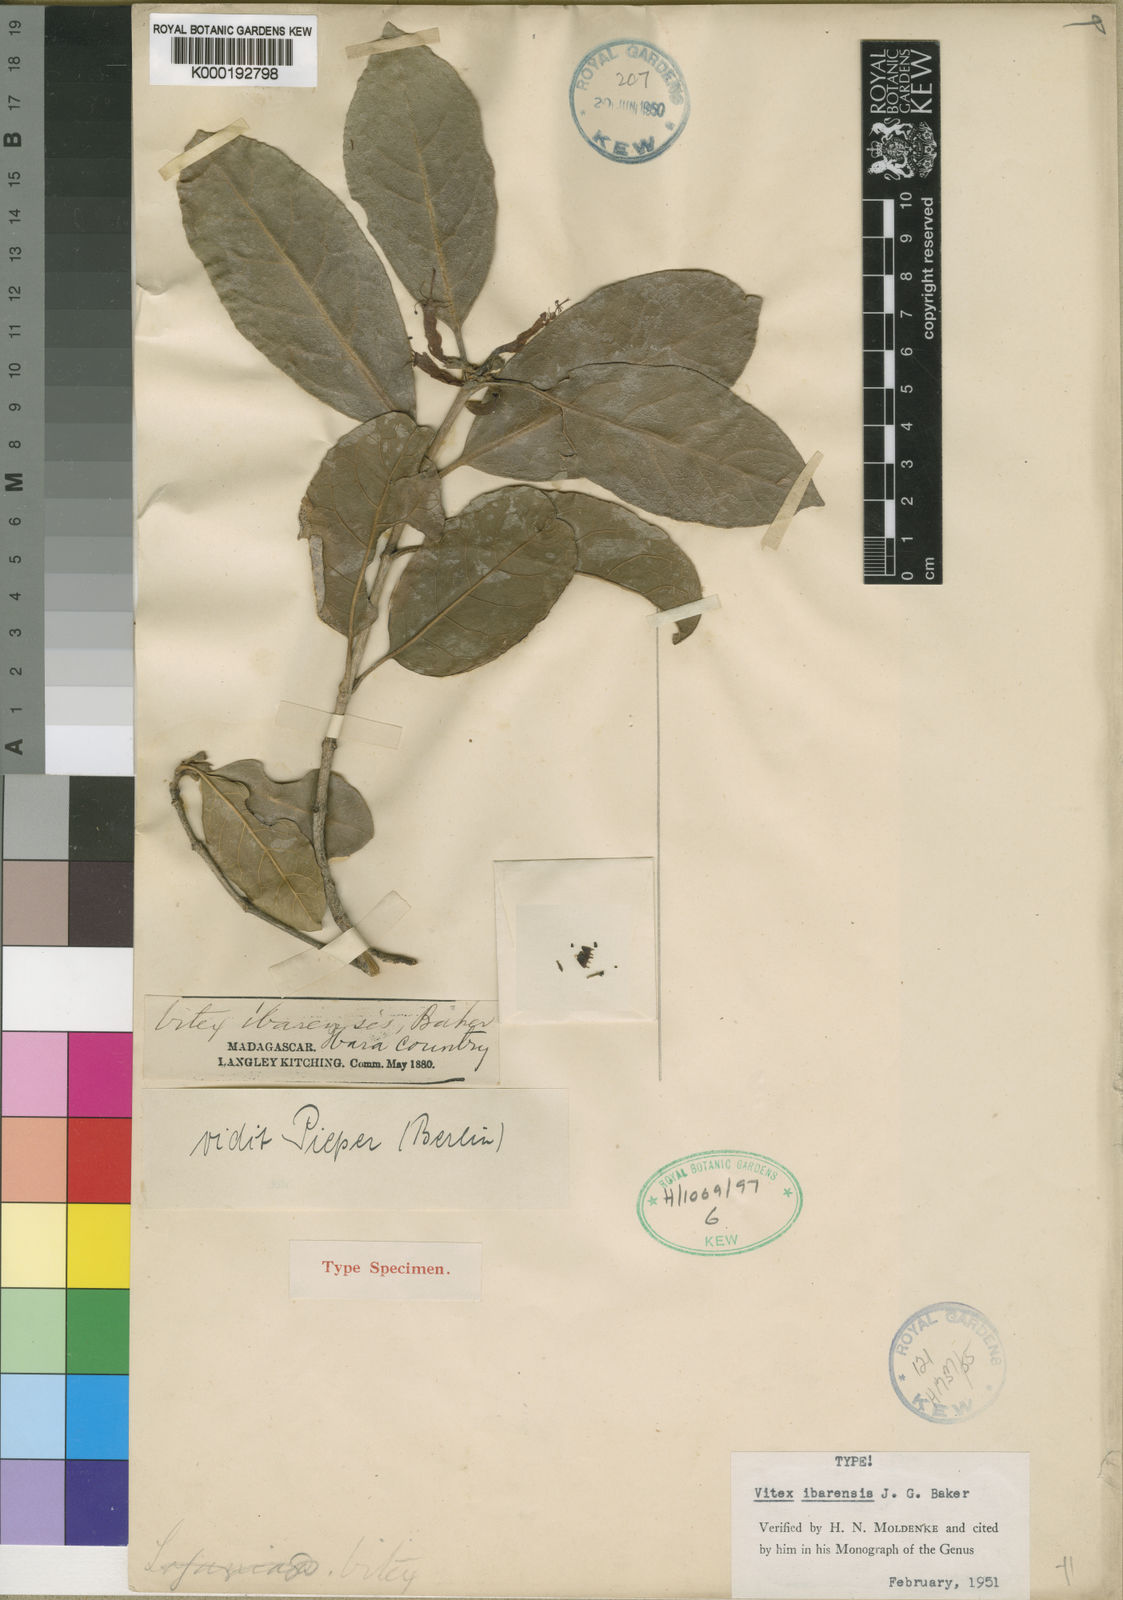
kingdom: Plantae
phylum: Tracheophyta
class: Magnoliopsida
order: Lamiales
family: Lamiaceae
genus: Vitex
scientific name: Vitex ibarensis
